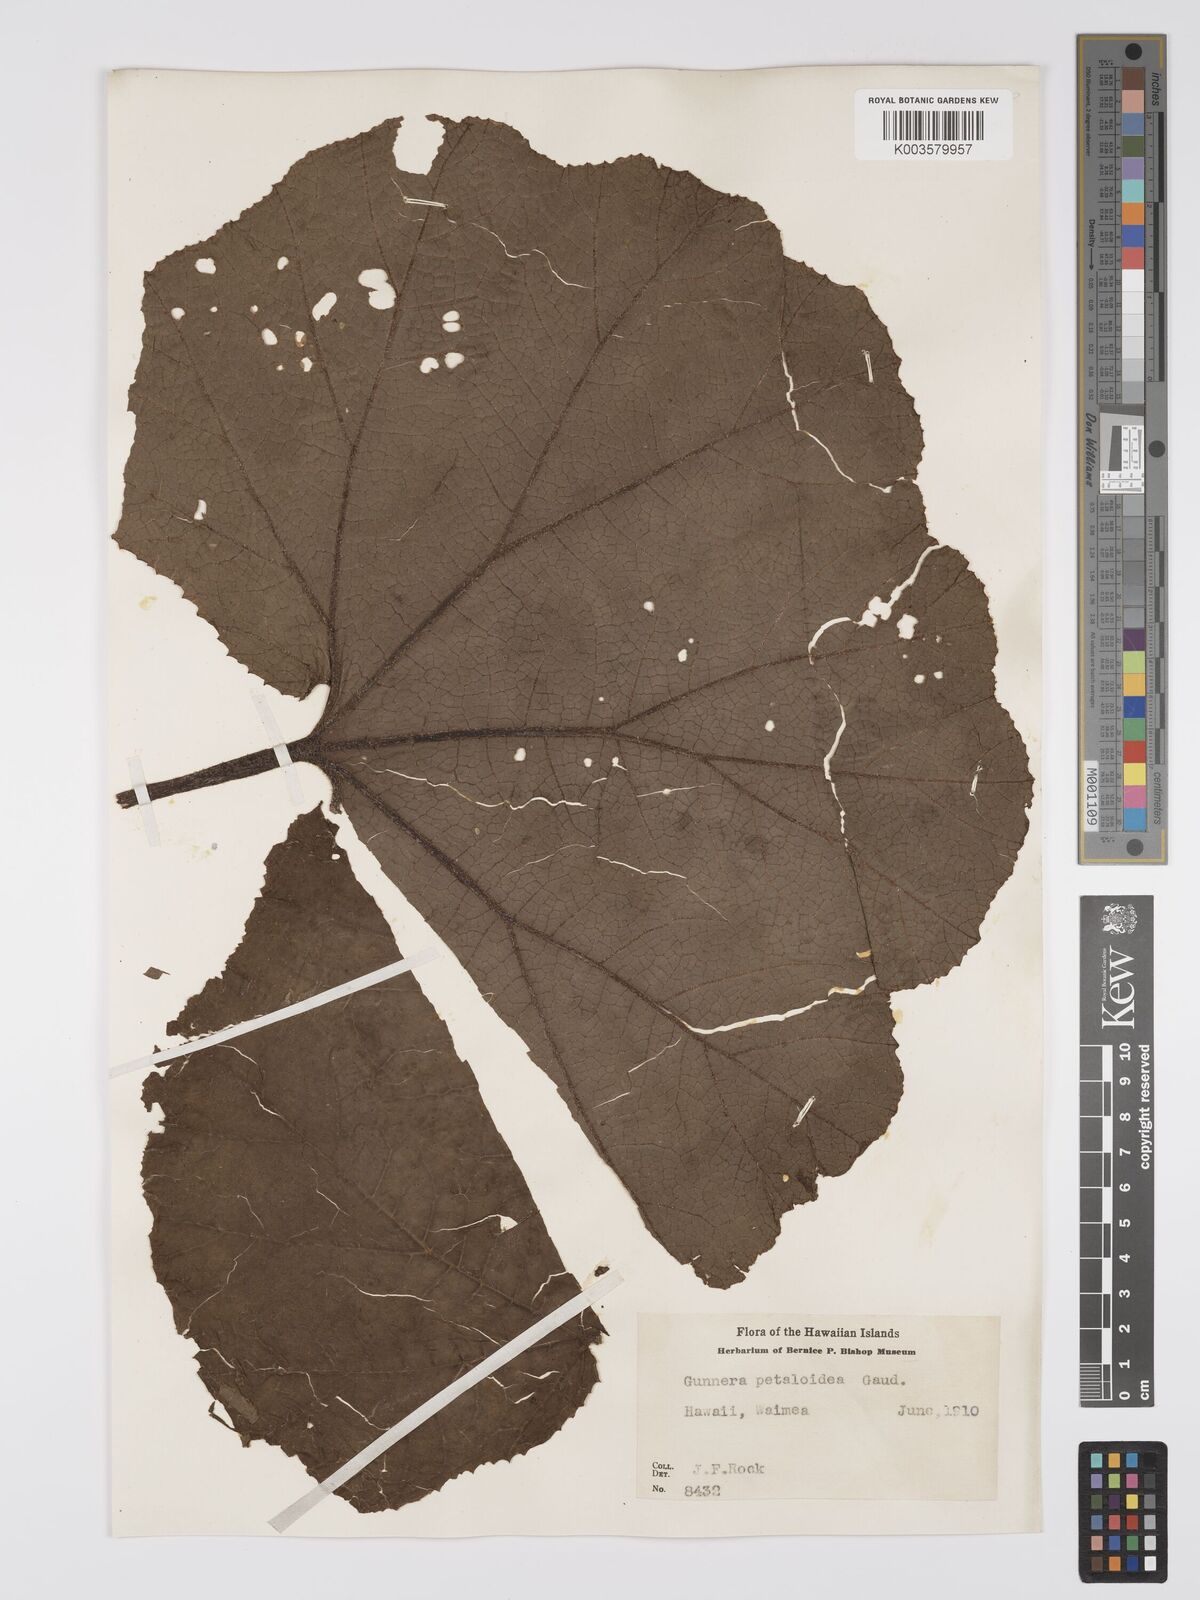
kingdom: Plantae
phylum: Tracheophyta
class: Magnoliopsida
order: Gunnerales
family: Gunneraceae
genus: Gunnera
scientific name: Gunnera petaloidea
